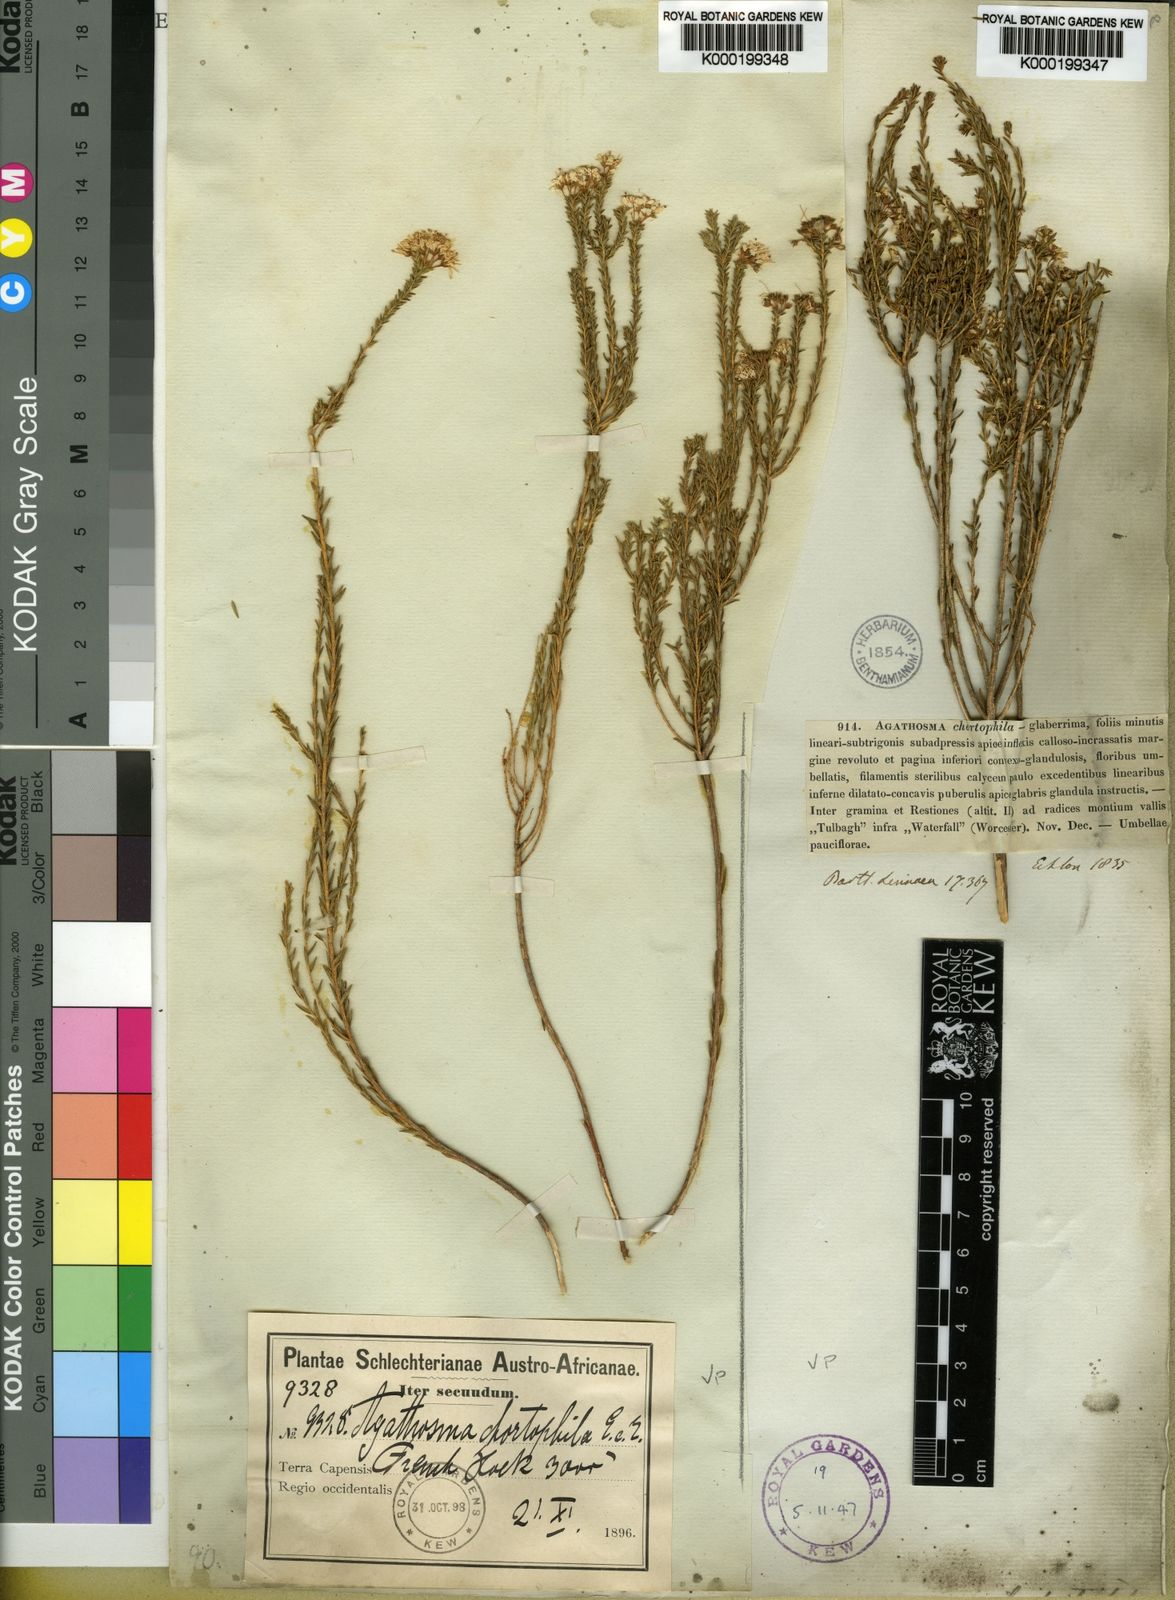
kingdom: Plantae
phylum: Tracheophyta
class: Magnoliopsida
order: Sapindales
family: Rutaceae
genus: Agathosma
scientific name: Agathosma capensis
